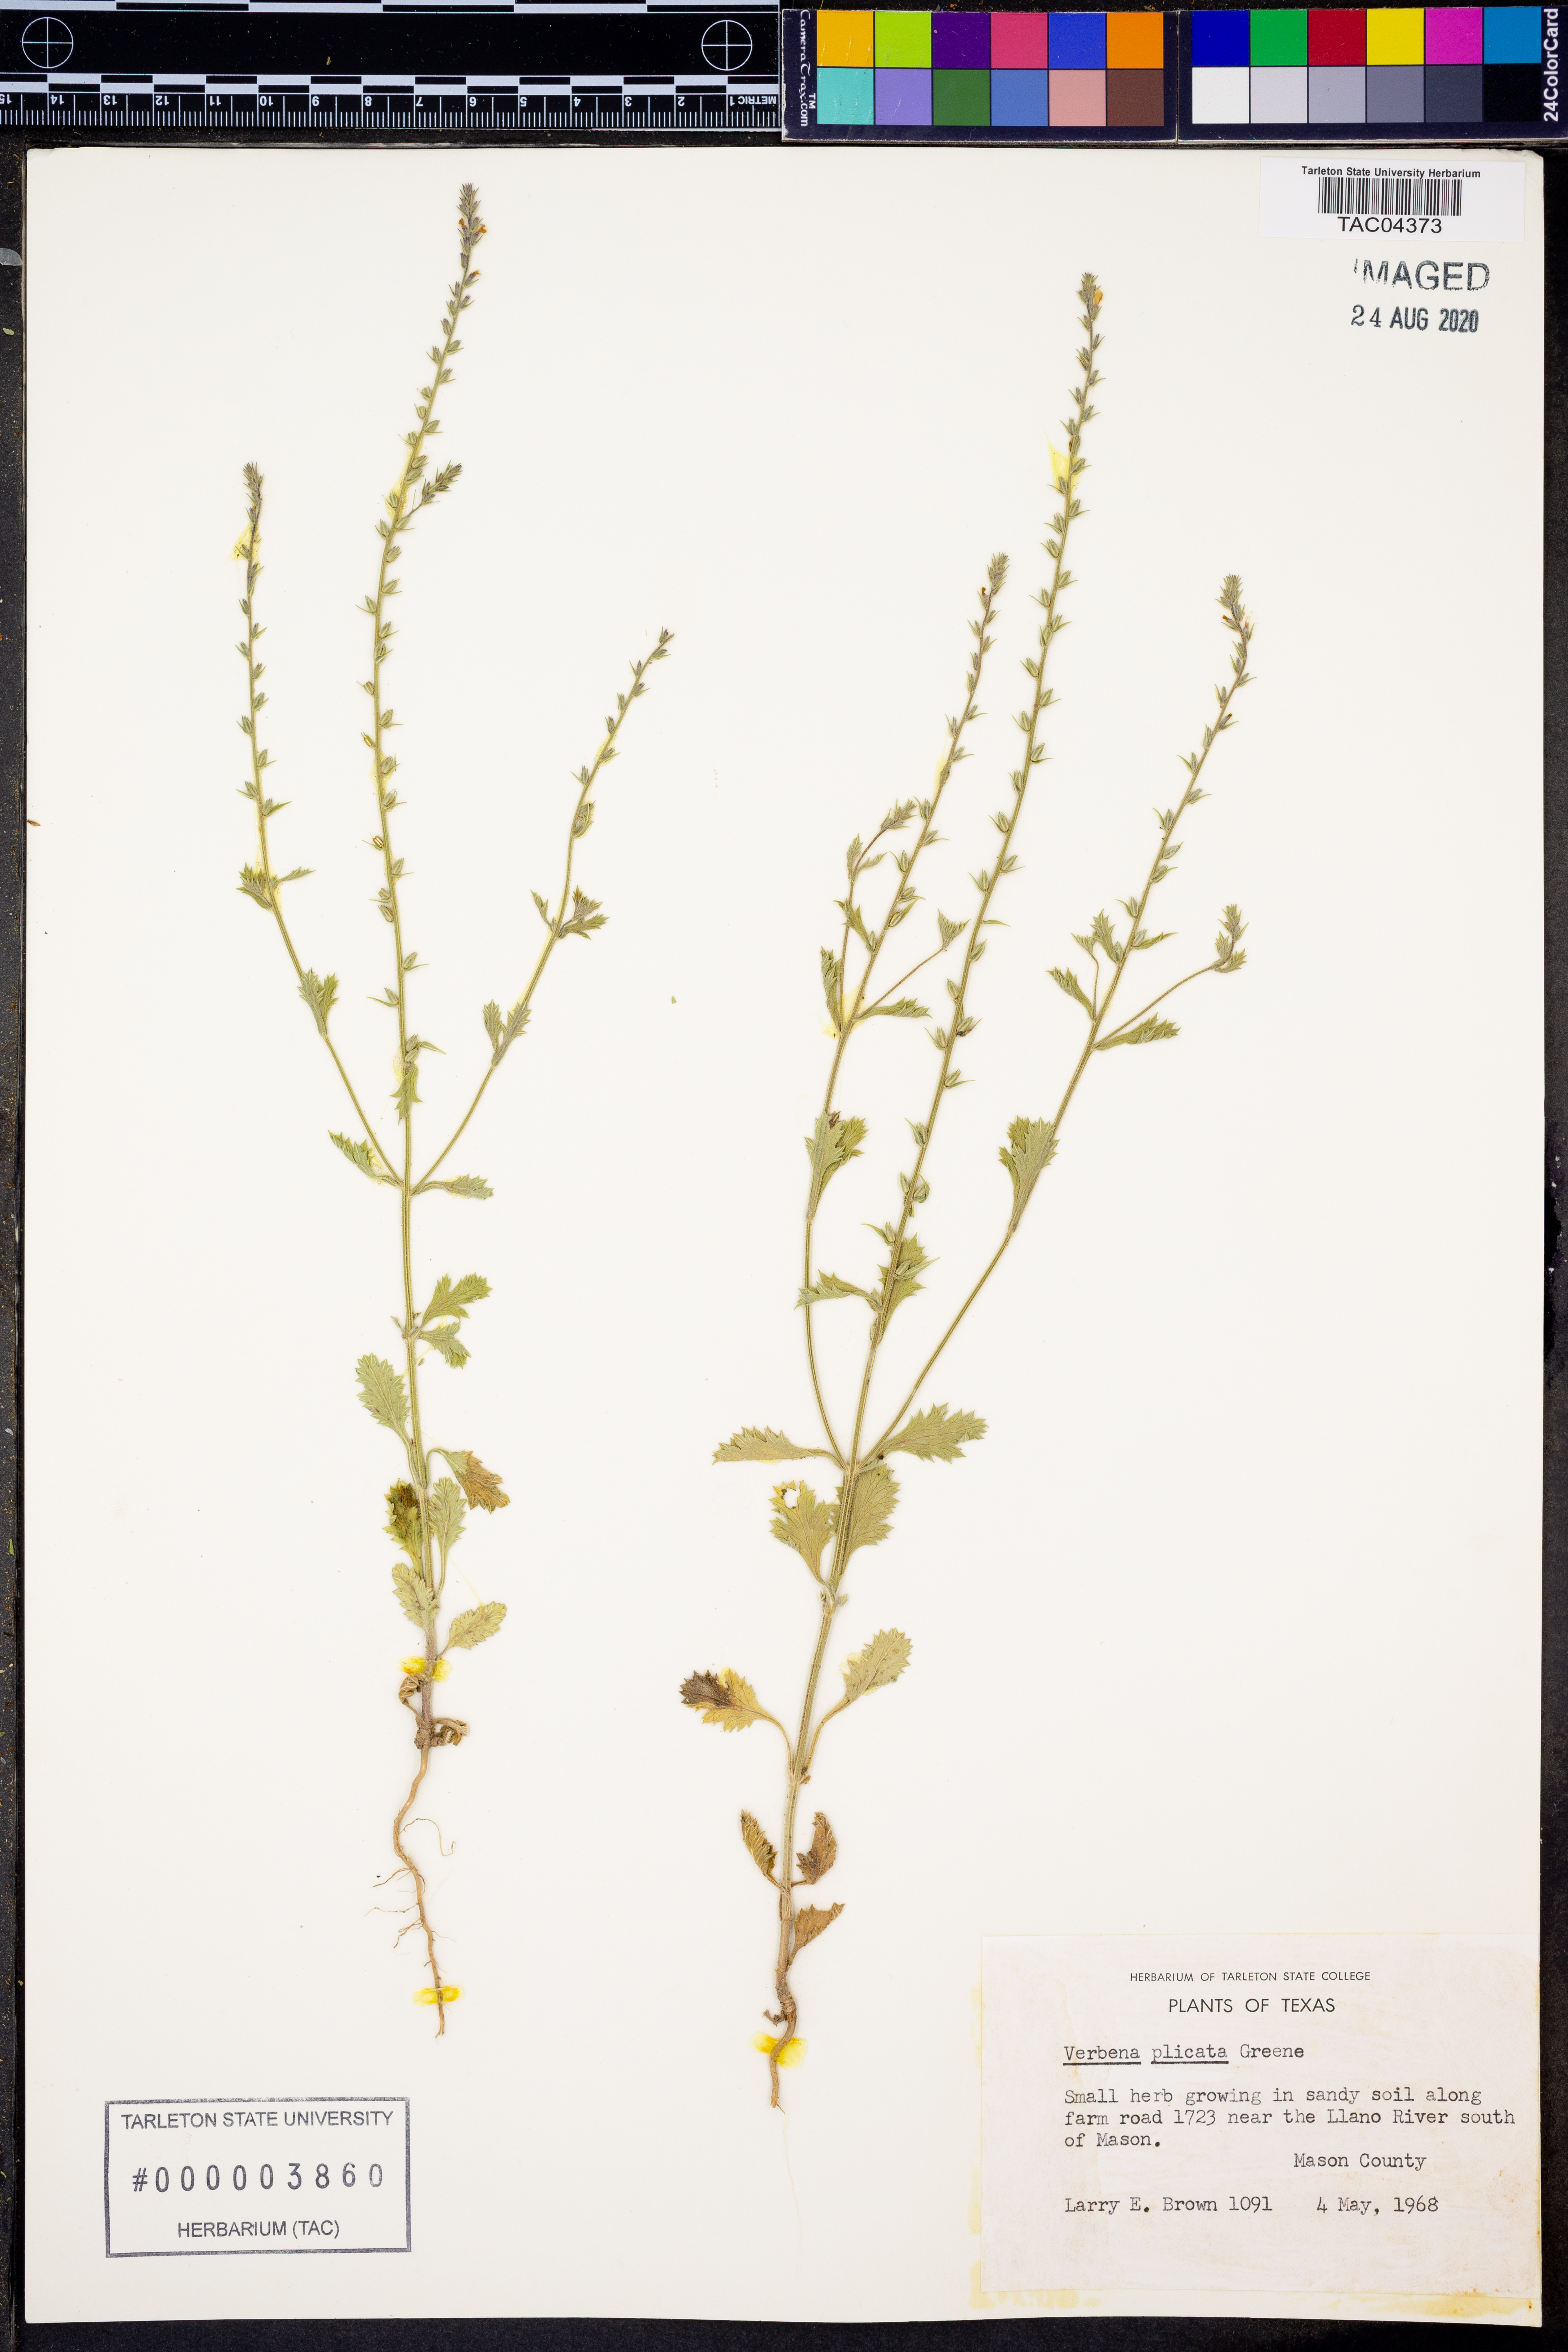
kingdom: Plantae
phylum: Tracheophyta
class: Magnoliopsida
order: Lamiales
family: Verbenaceae
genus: Verbena
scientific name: Verbena plicata
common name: Fan-leaf vervain
